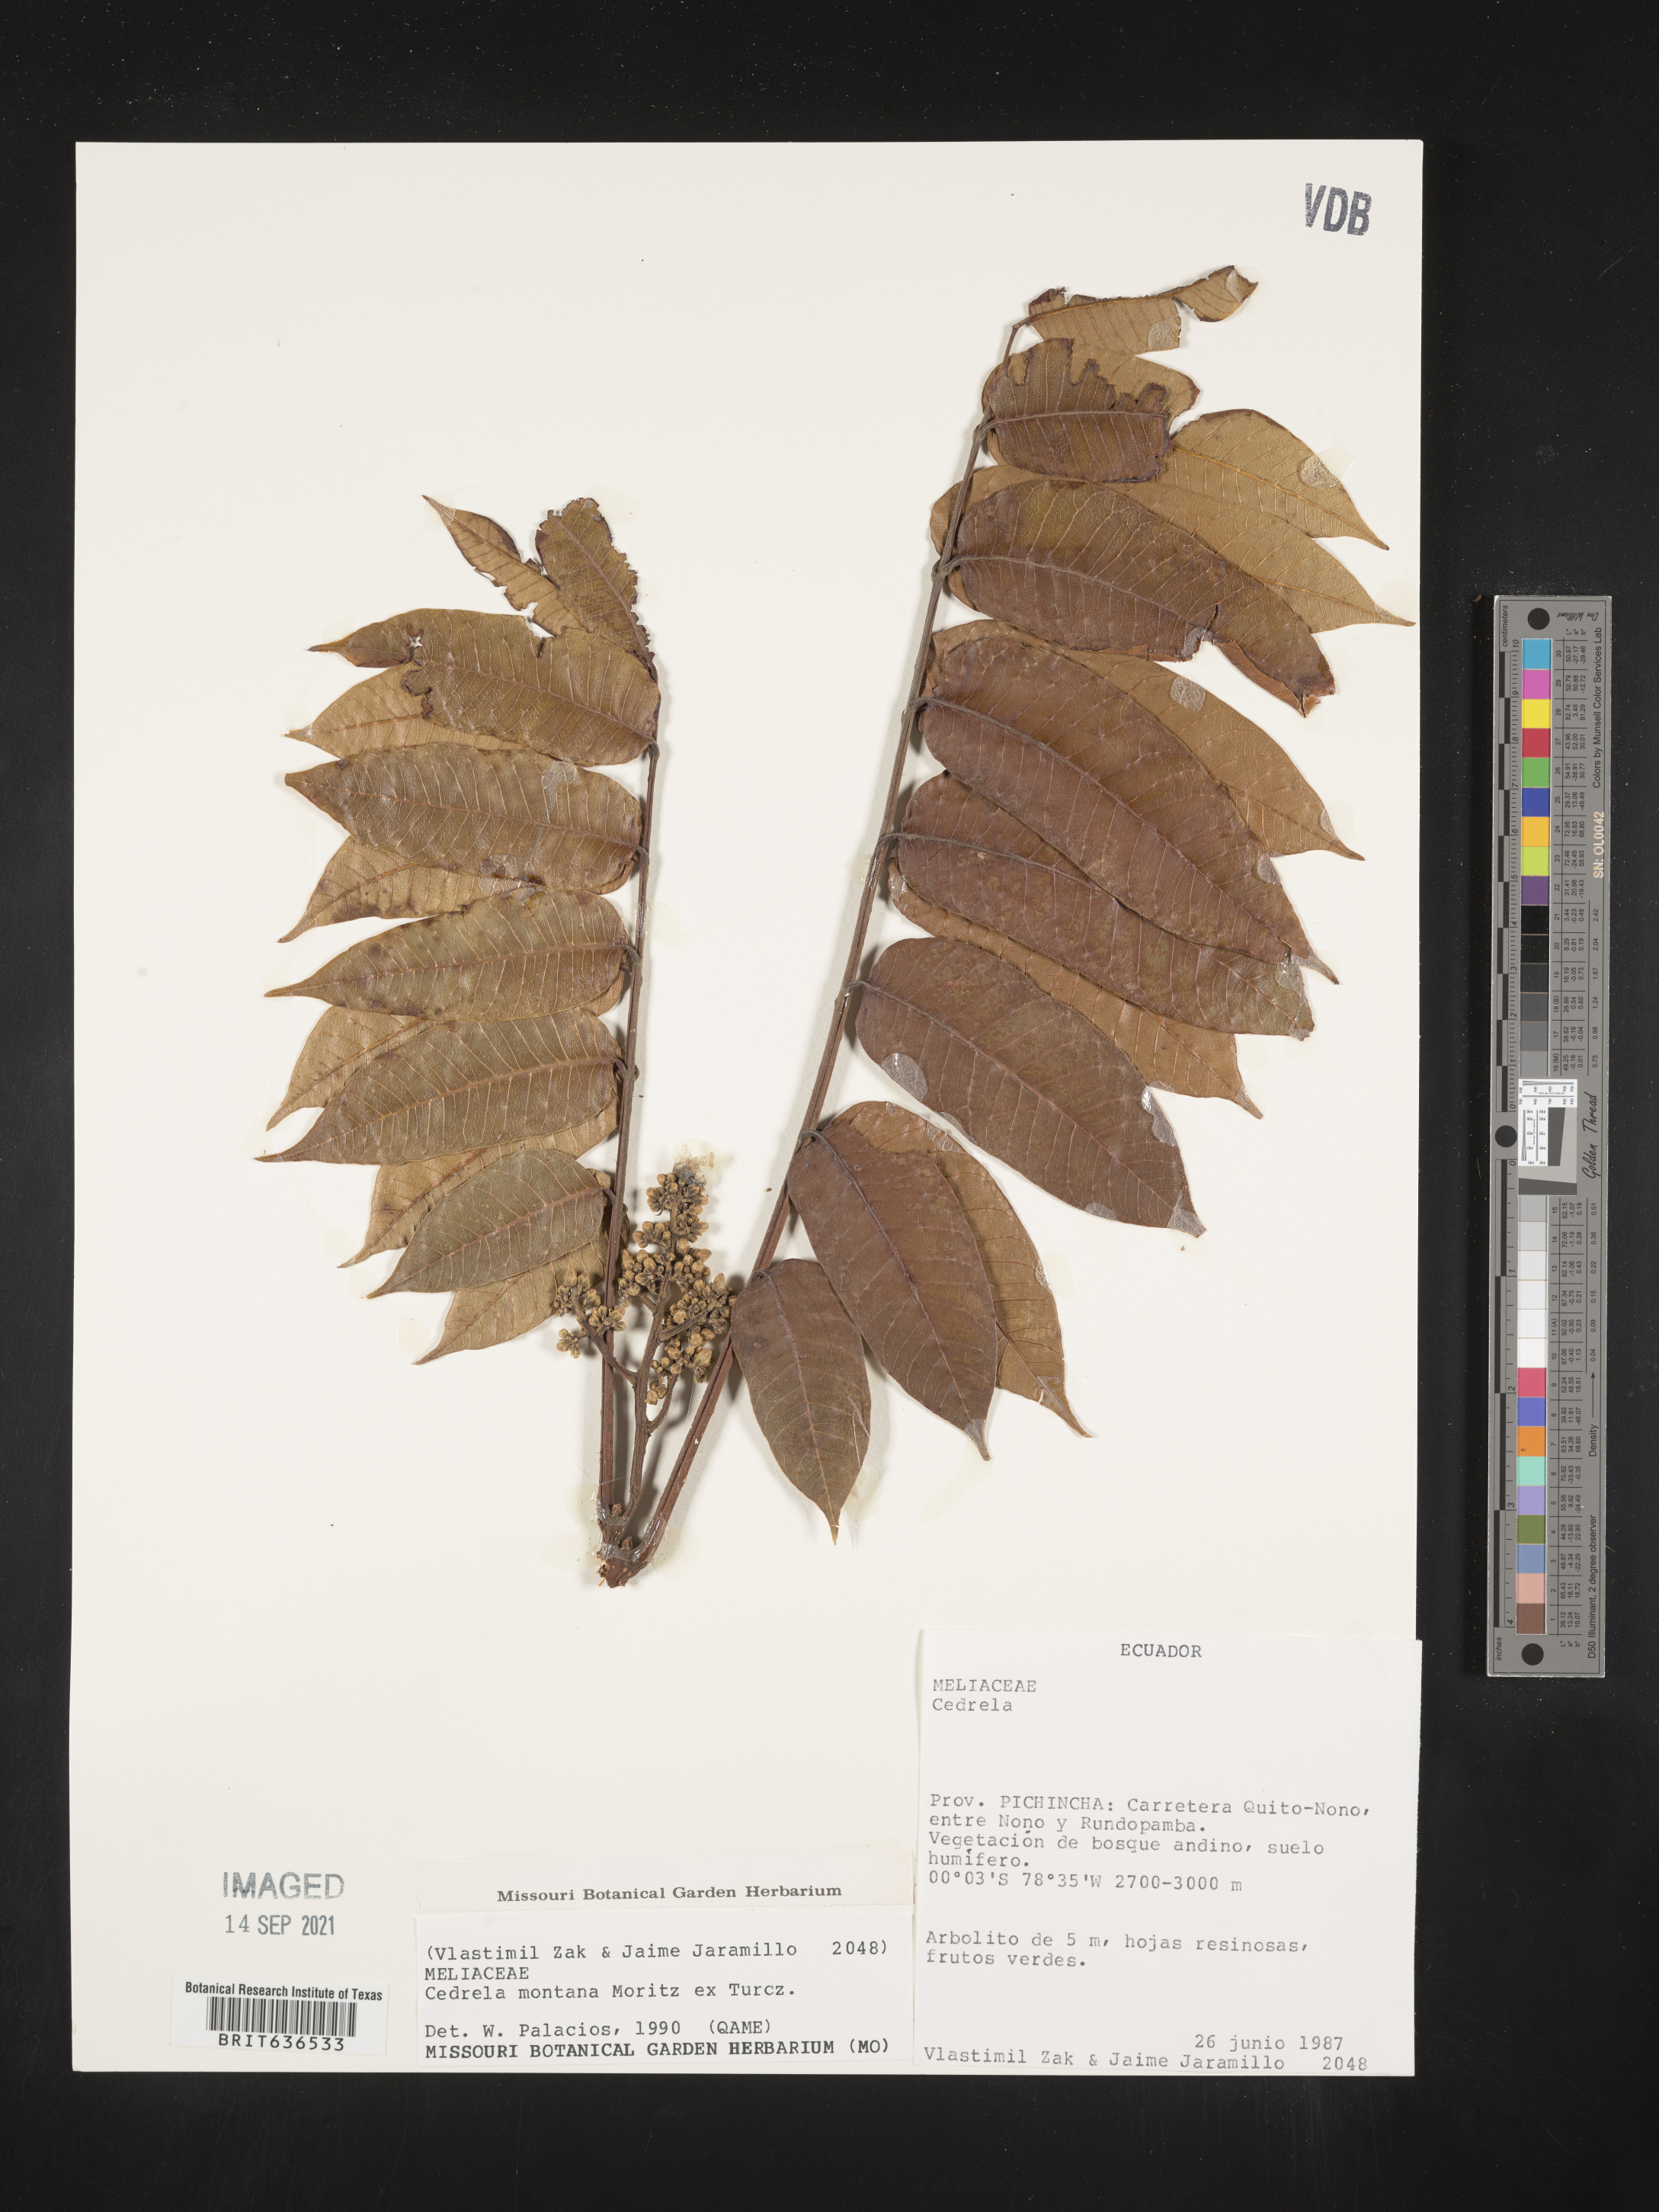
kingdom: Plantae
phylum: Tracheophyta
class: Magnoliopsida
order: Sapindales
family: Meliaceae
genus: Cedrela
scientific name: Cedrela
